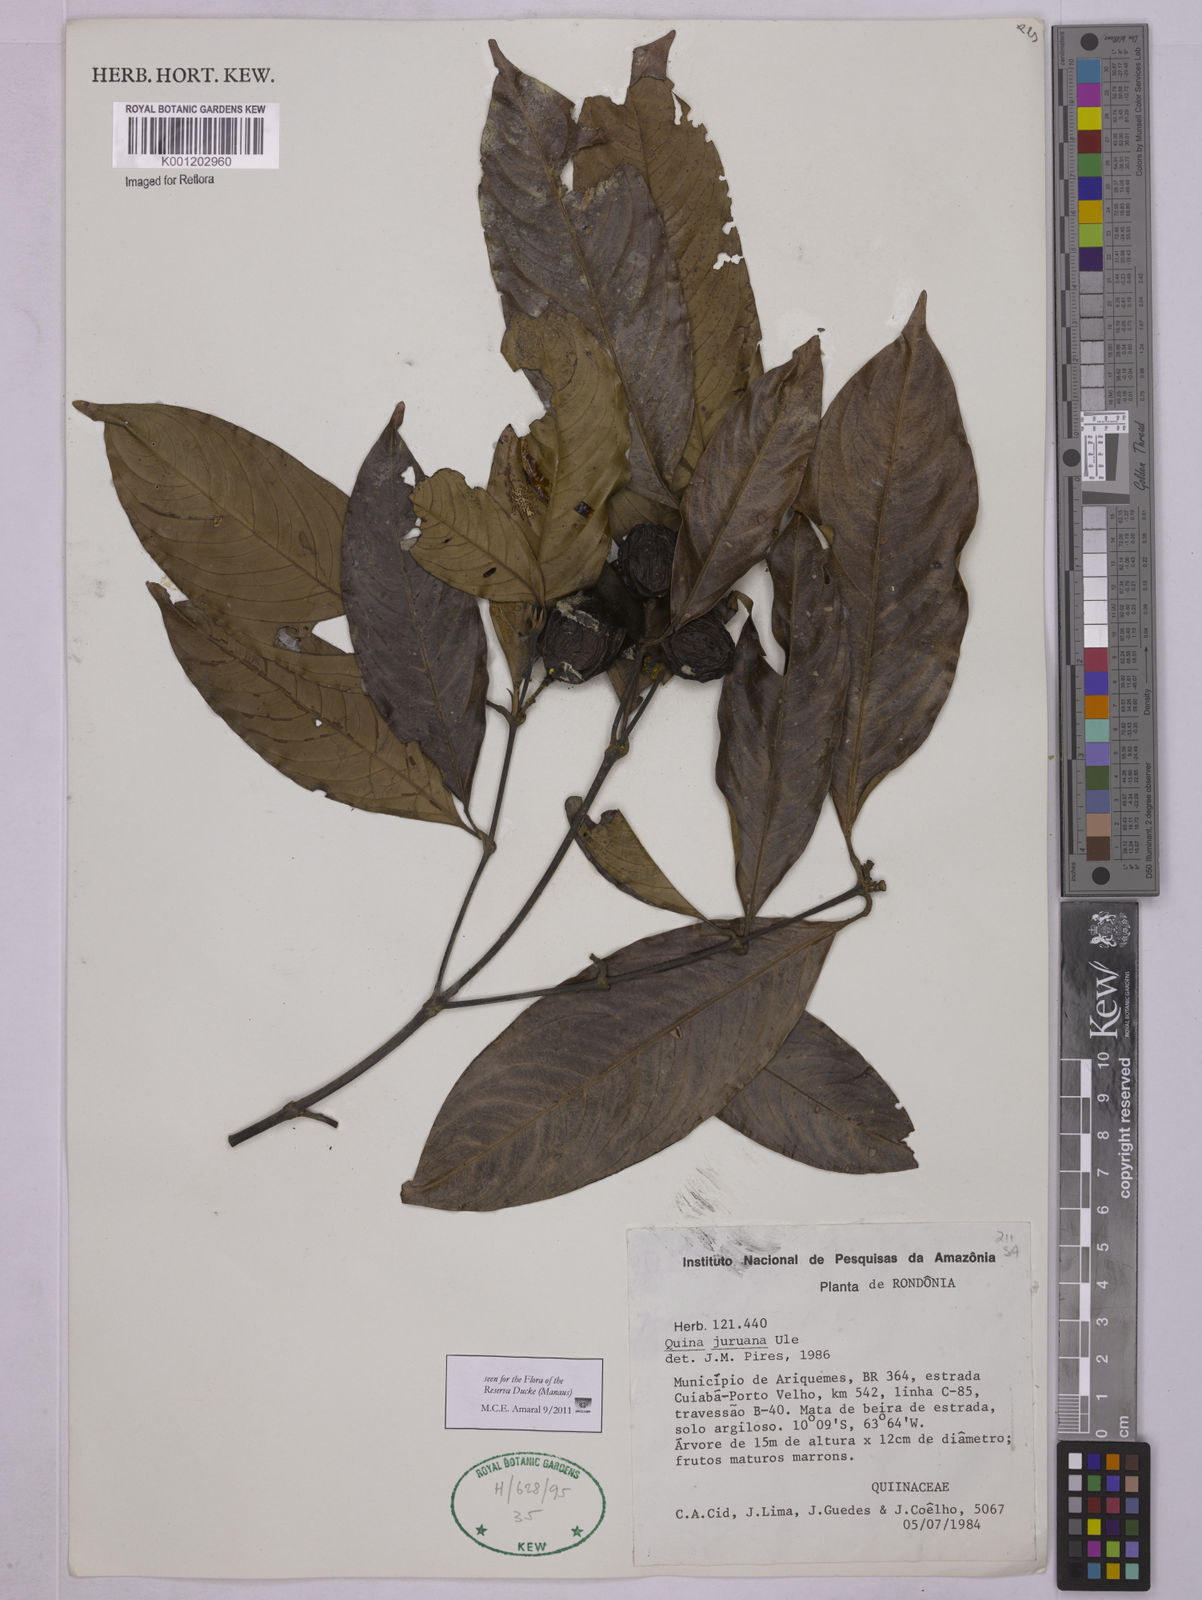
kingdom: Plantae
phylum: Tracheophyta
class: Magnoliopsida
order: Malpighiales
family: Quiinaceae
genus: Quiina
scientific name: Quiina florida
